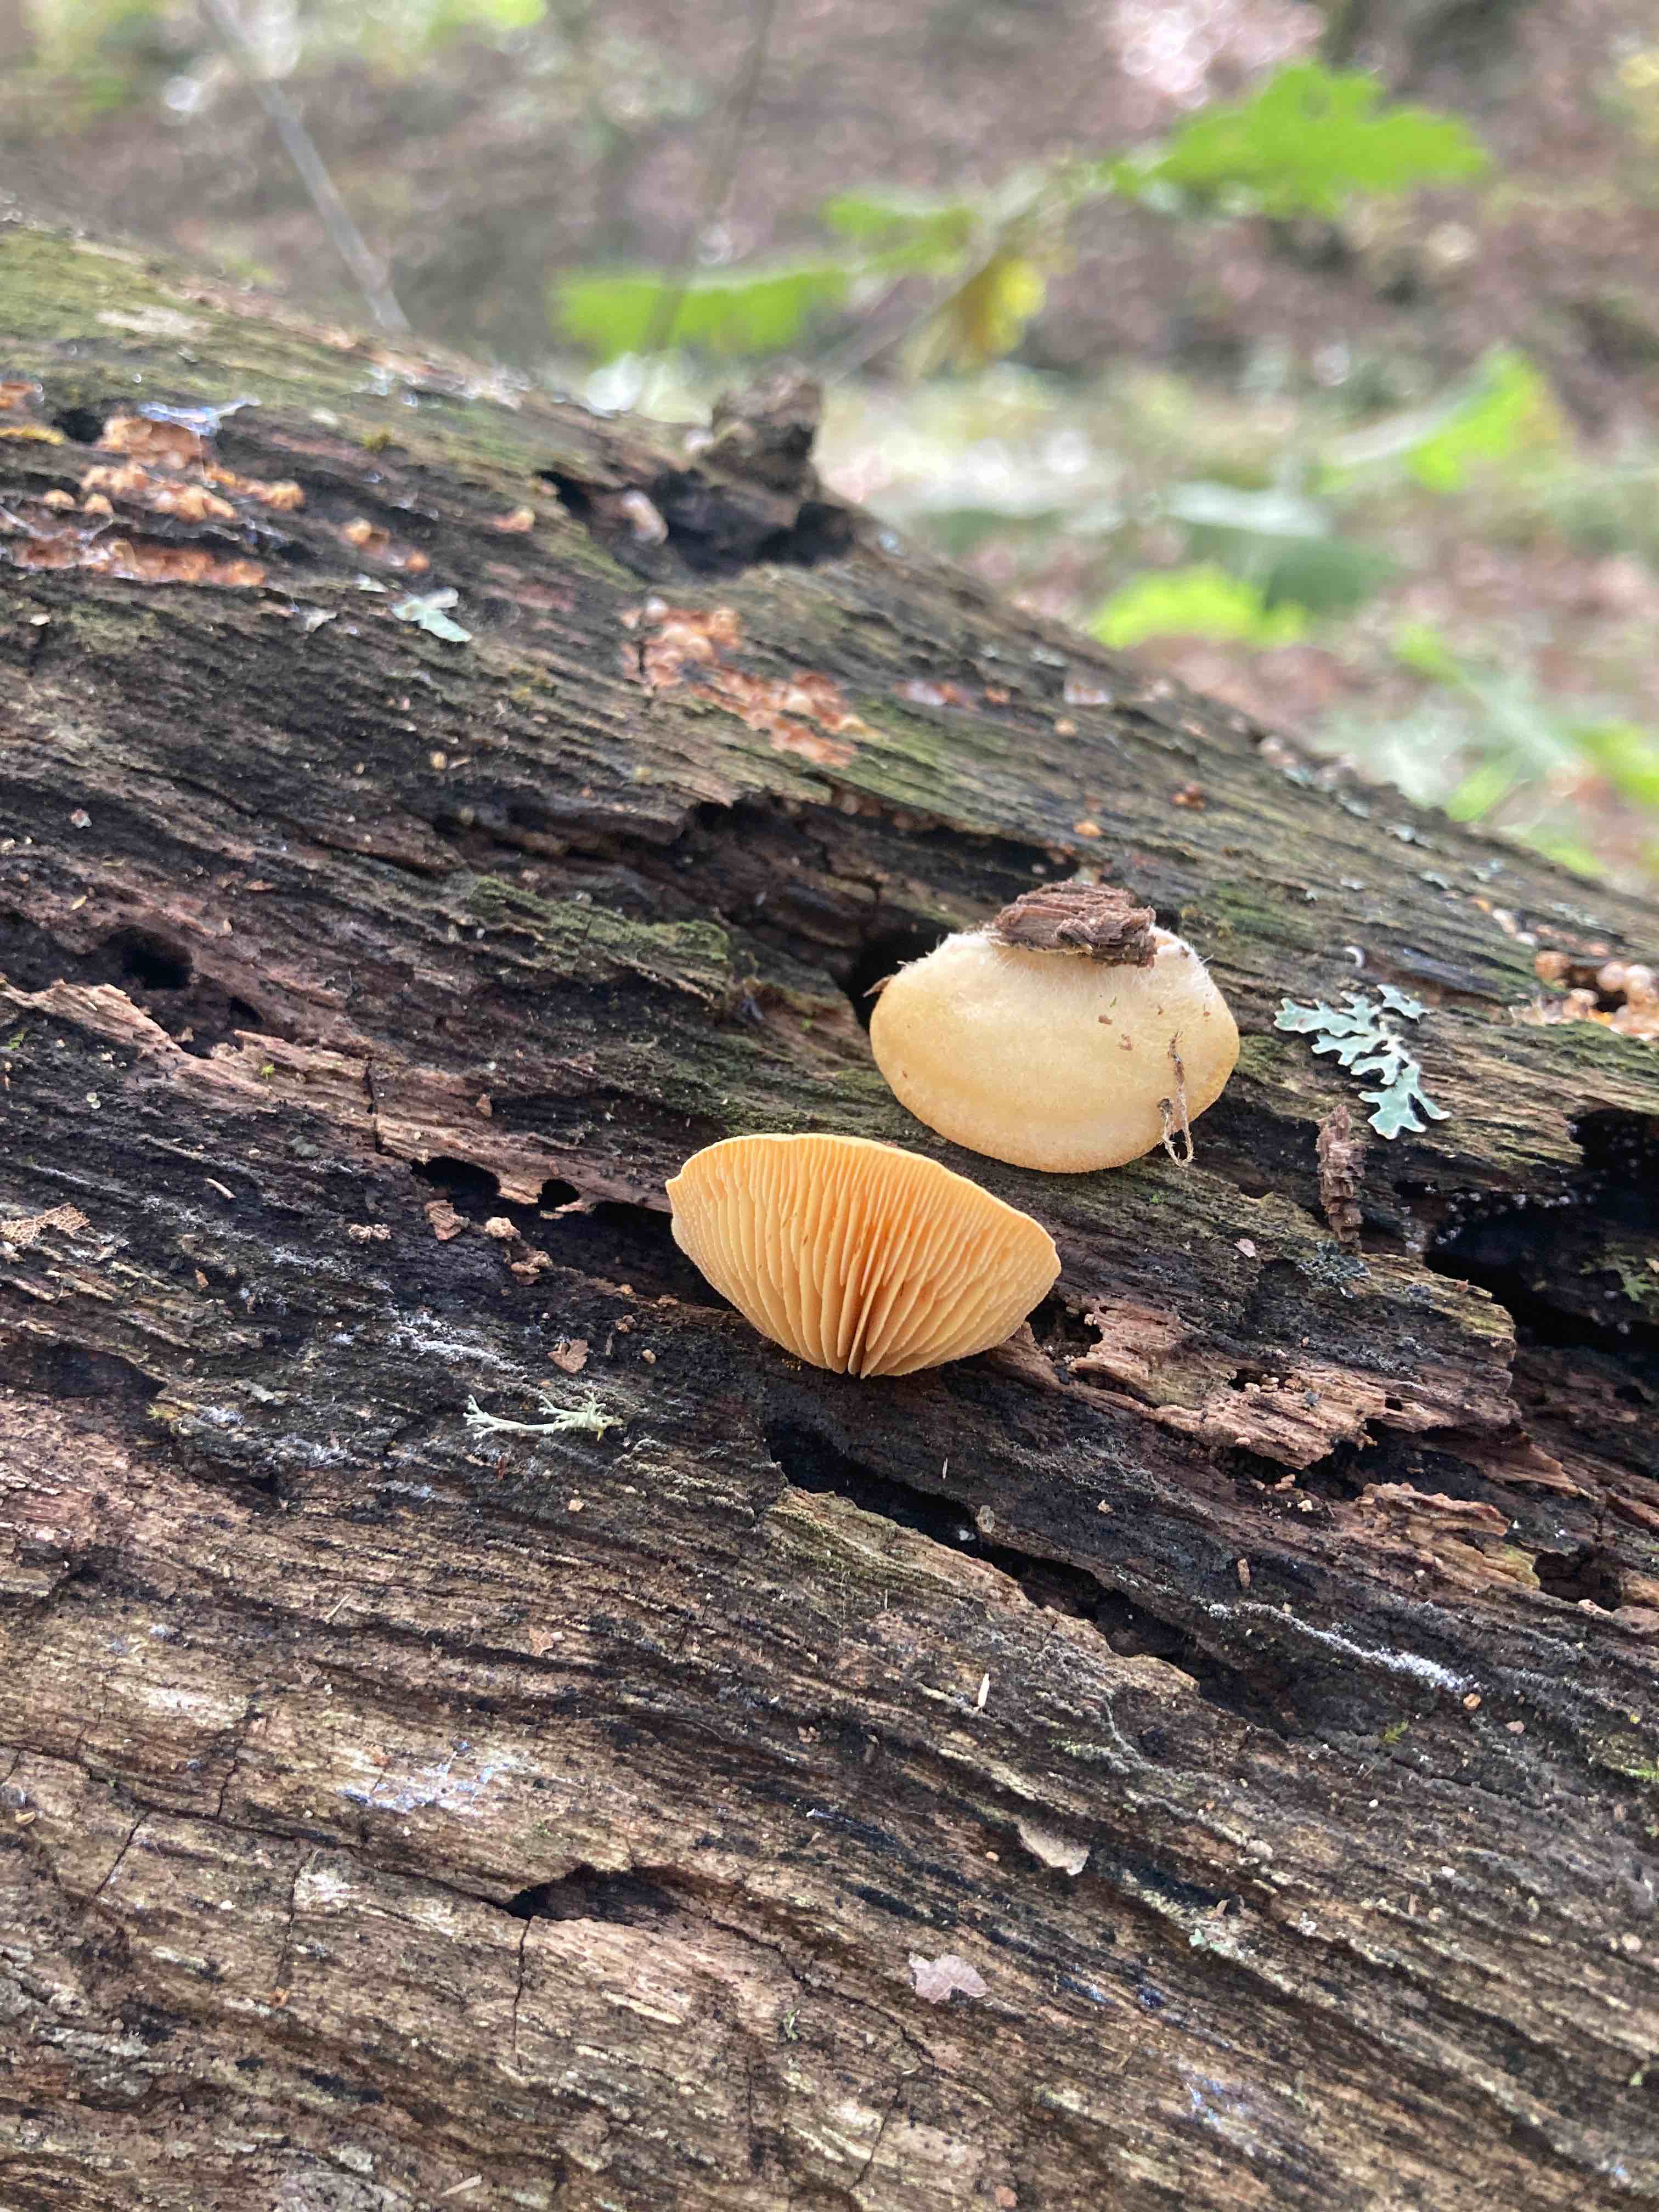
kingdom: Fungi
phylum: Basidiomycota
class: Agaricomycetes
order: Agaricales
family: Phyllotopsidaceae
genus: Phyllotopsis
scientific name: Phyllotopsis nidulans
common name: okkerblad
